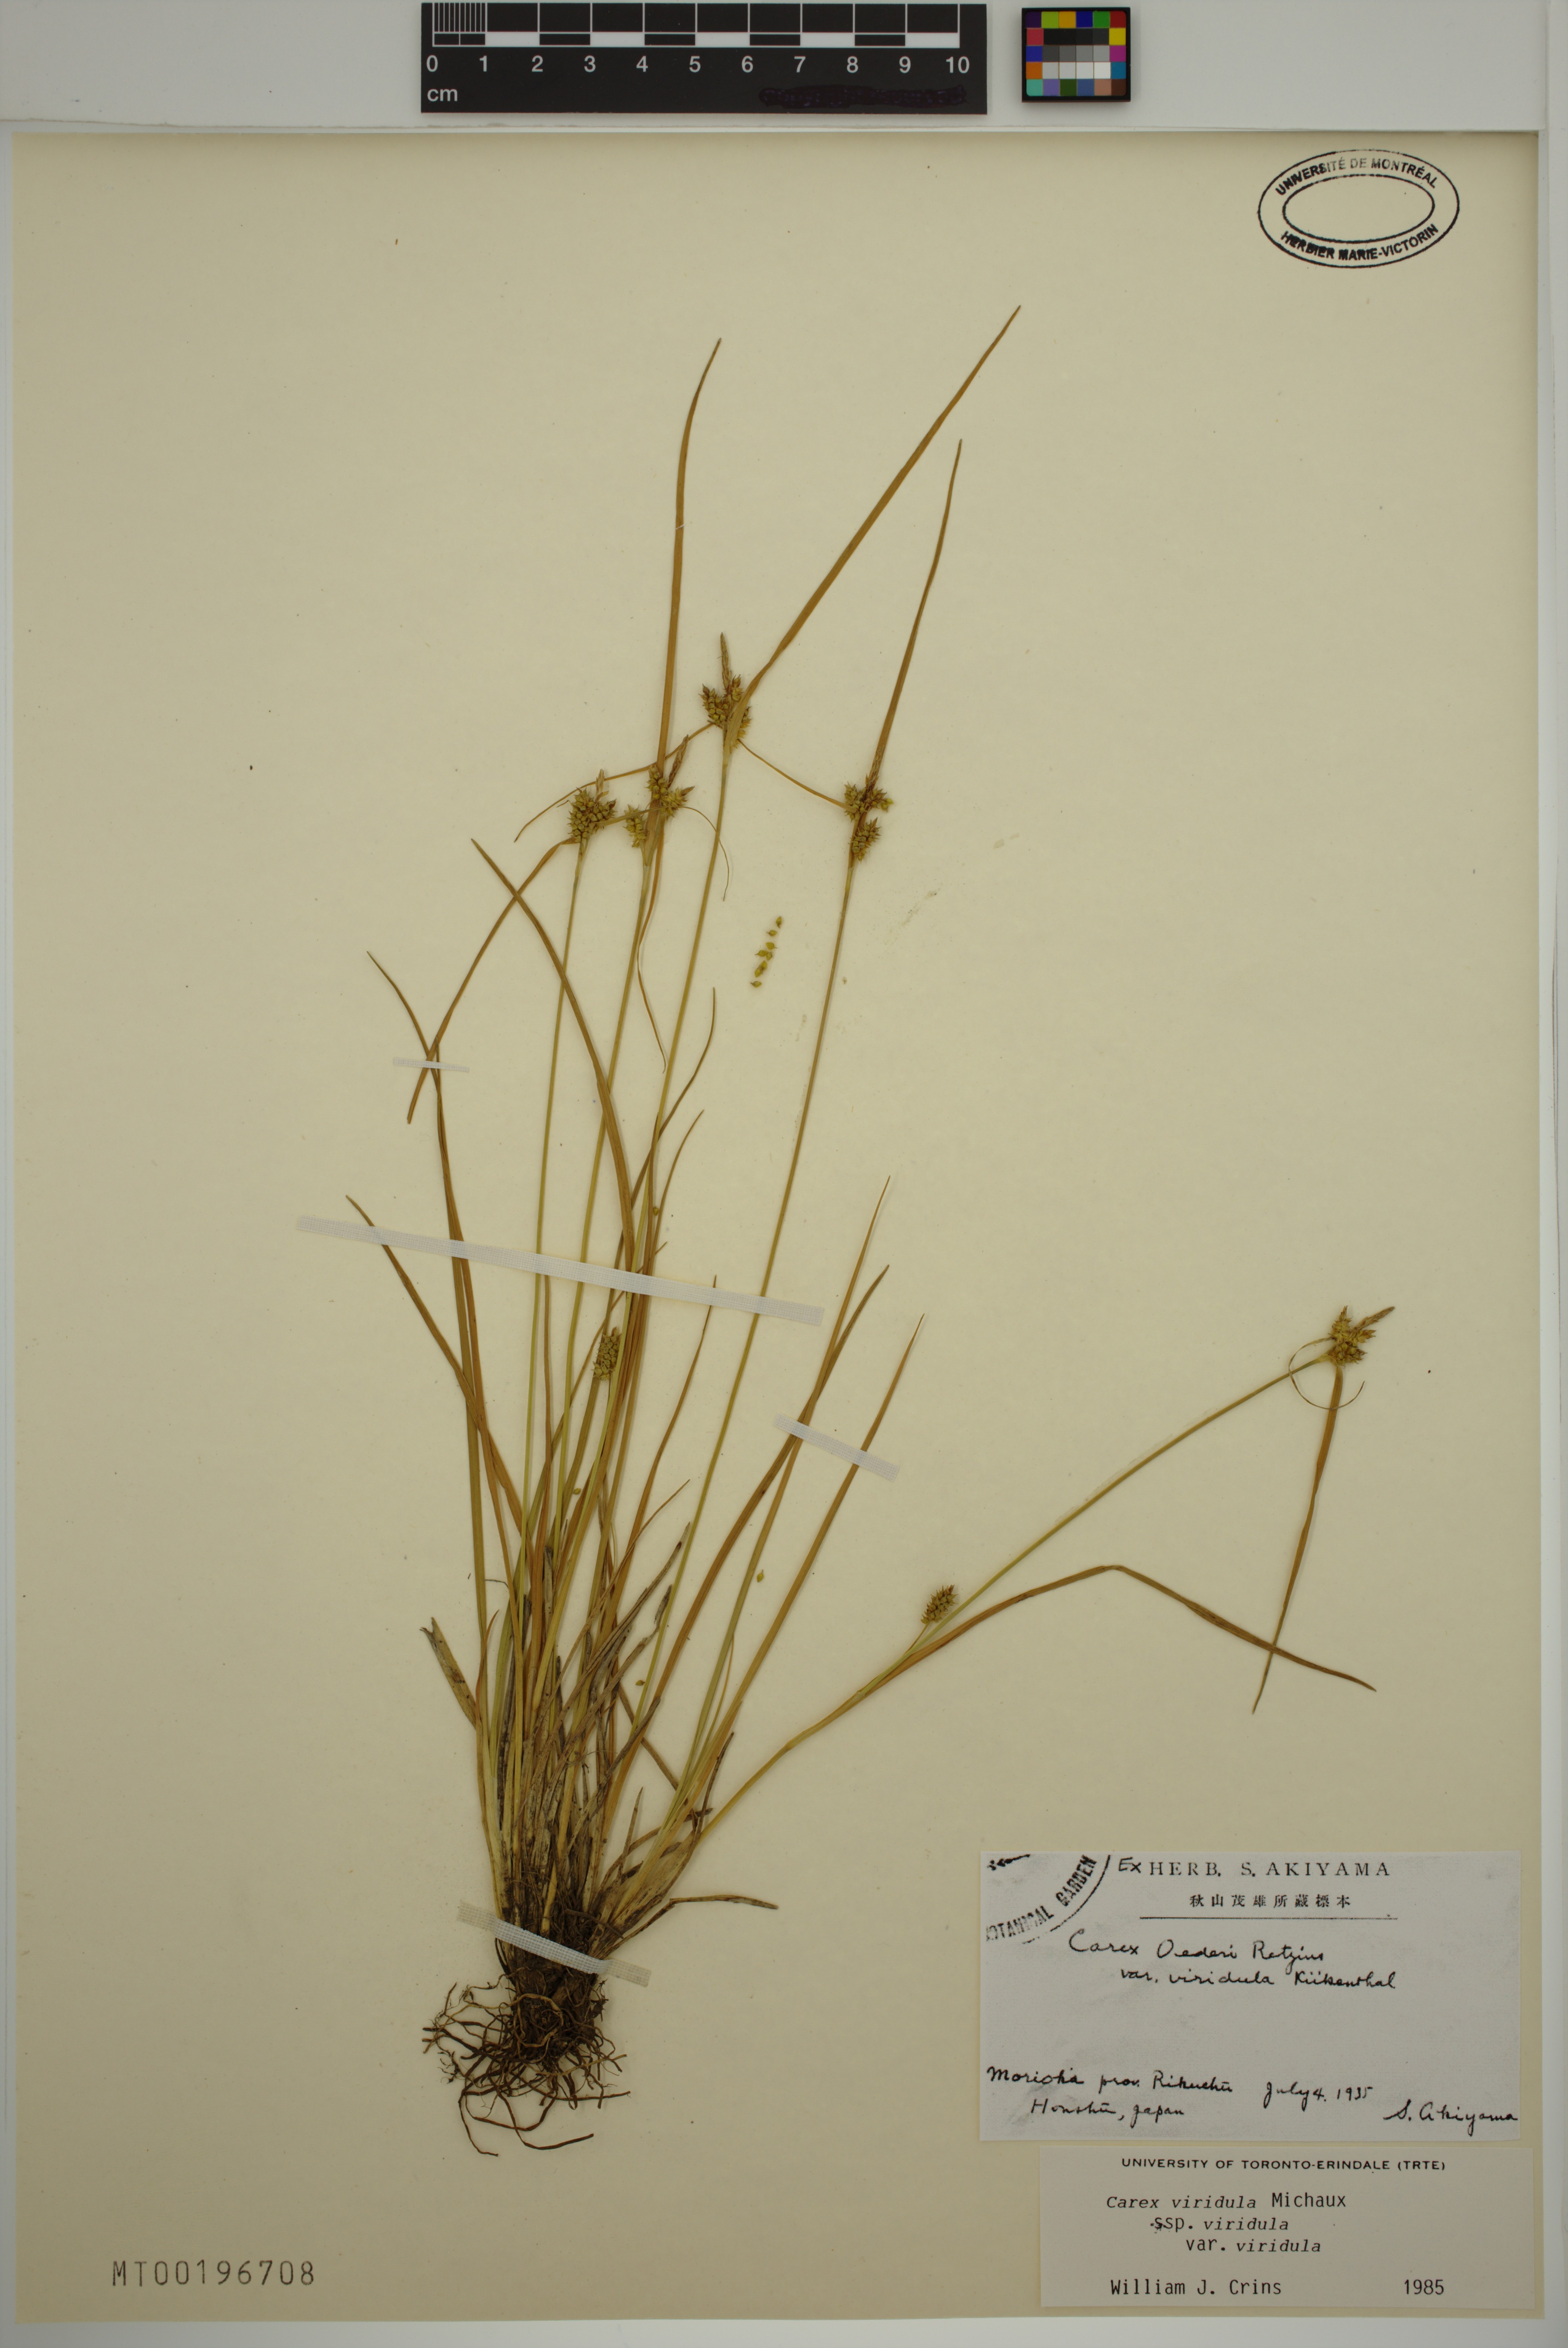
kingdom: Plantae
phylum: Tracheophyta
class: Liliopsida
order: Poales
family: Cyperaceae
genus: Carex
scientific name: Carex oederi
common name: Common & small-fruited yellow-sedge
